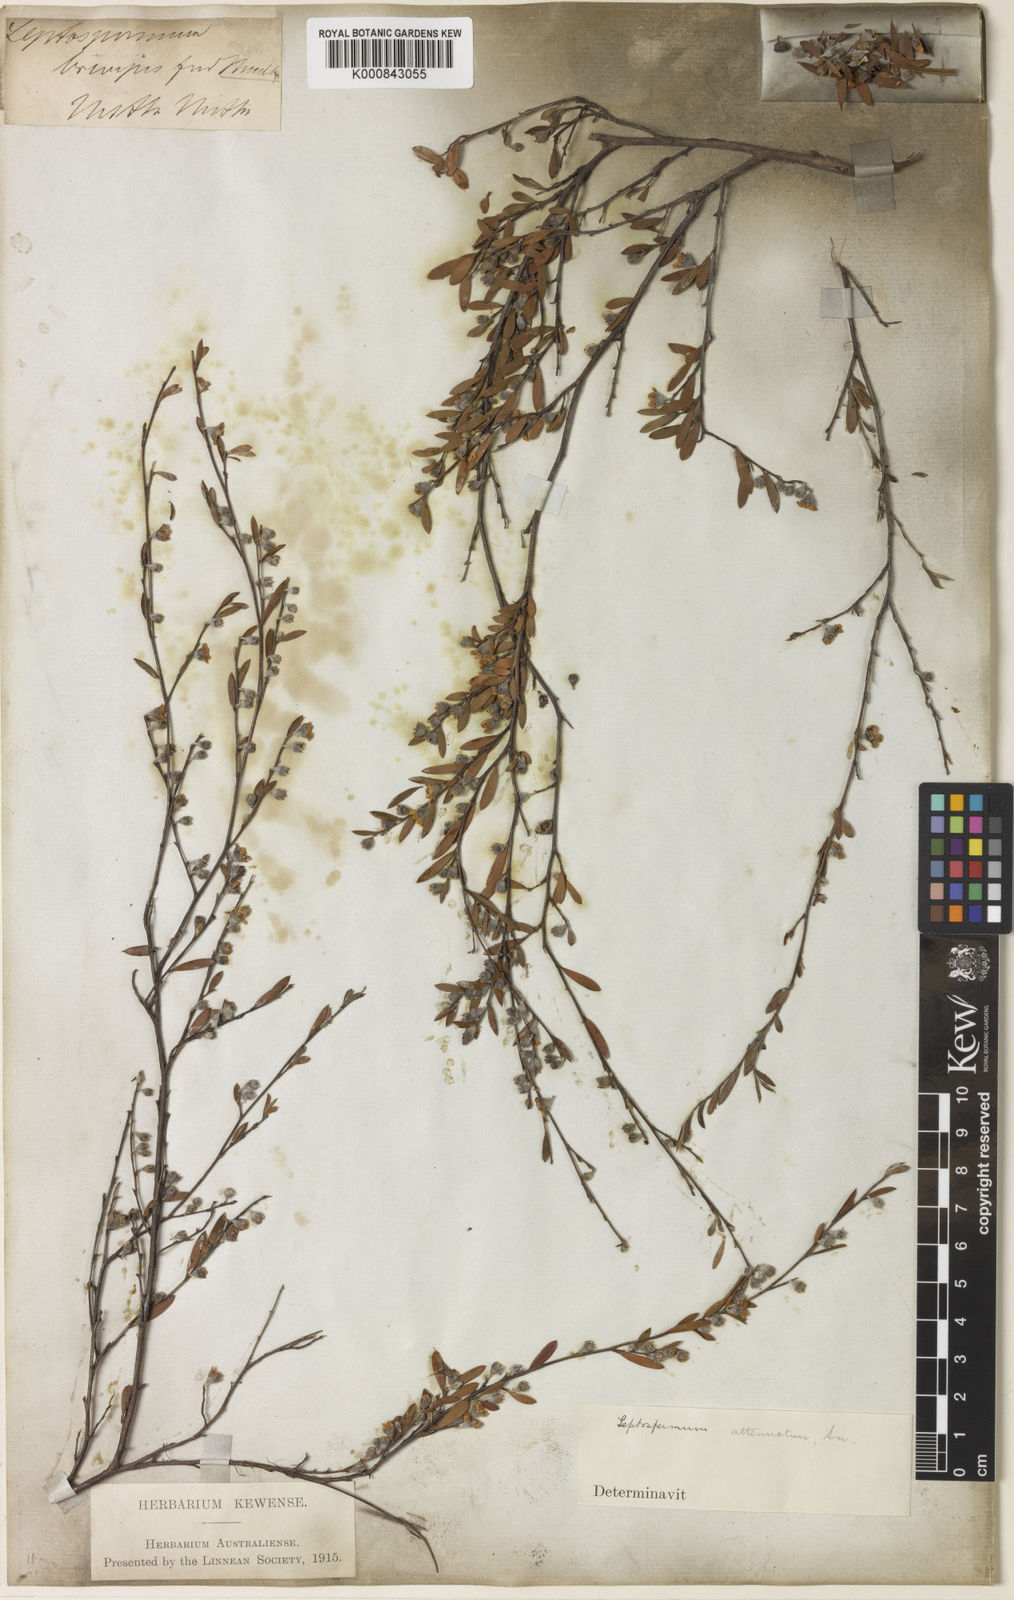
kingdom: Plantae
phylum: Tracheophyta
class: Magnoliopsida
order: Myrtales
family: Myrtaceae
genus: Leptospermum
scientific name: Leptospermum brevipes
